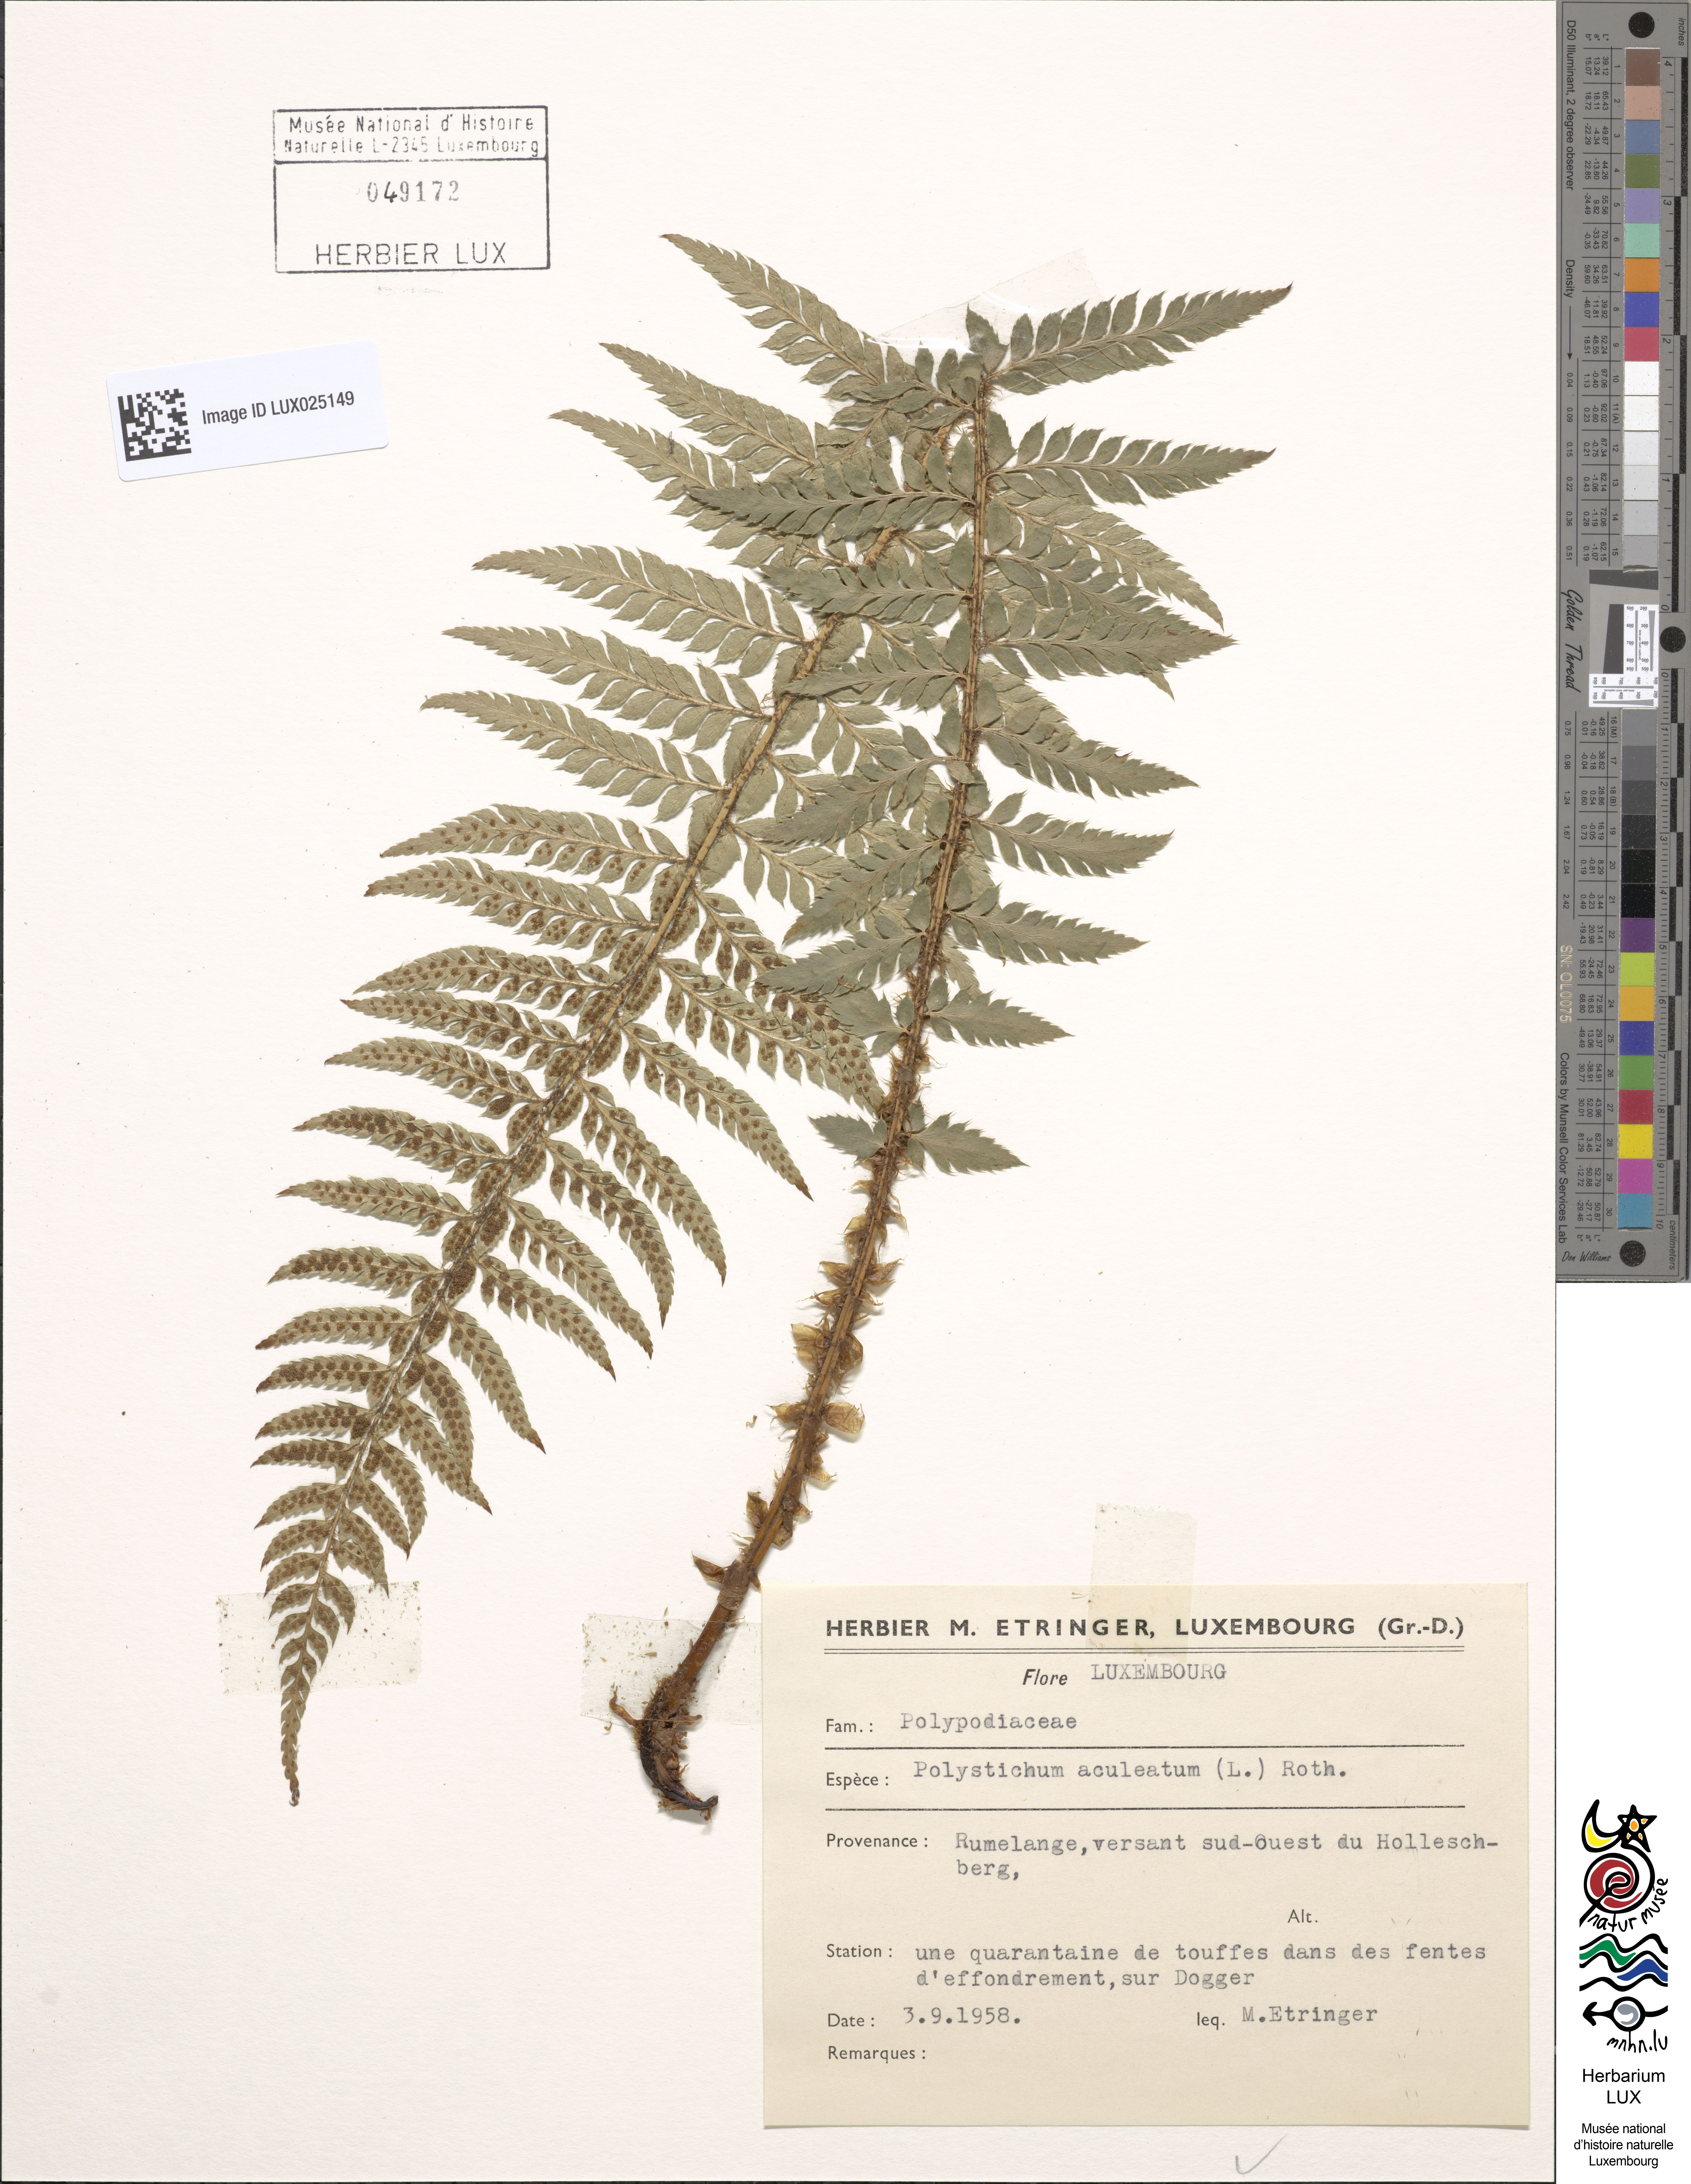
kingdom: Plantae
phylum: Tracheophyta
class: Polypodiopsida
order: Polypodiales
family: Dryopteridaceae
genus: Polystichum
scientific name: Polystichum aculeatum
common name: Hard shield-fern
